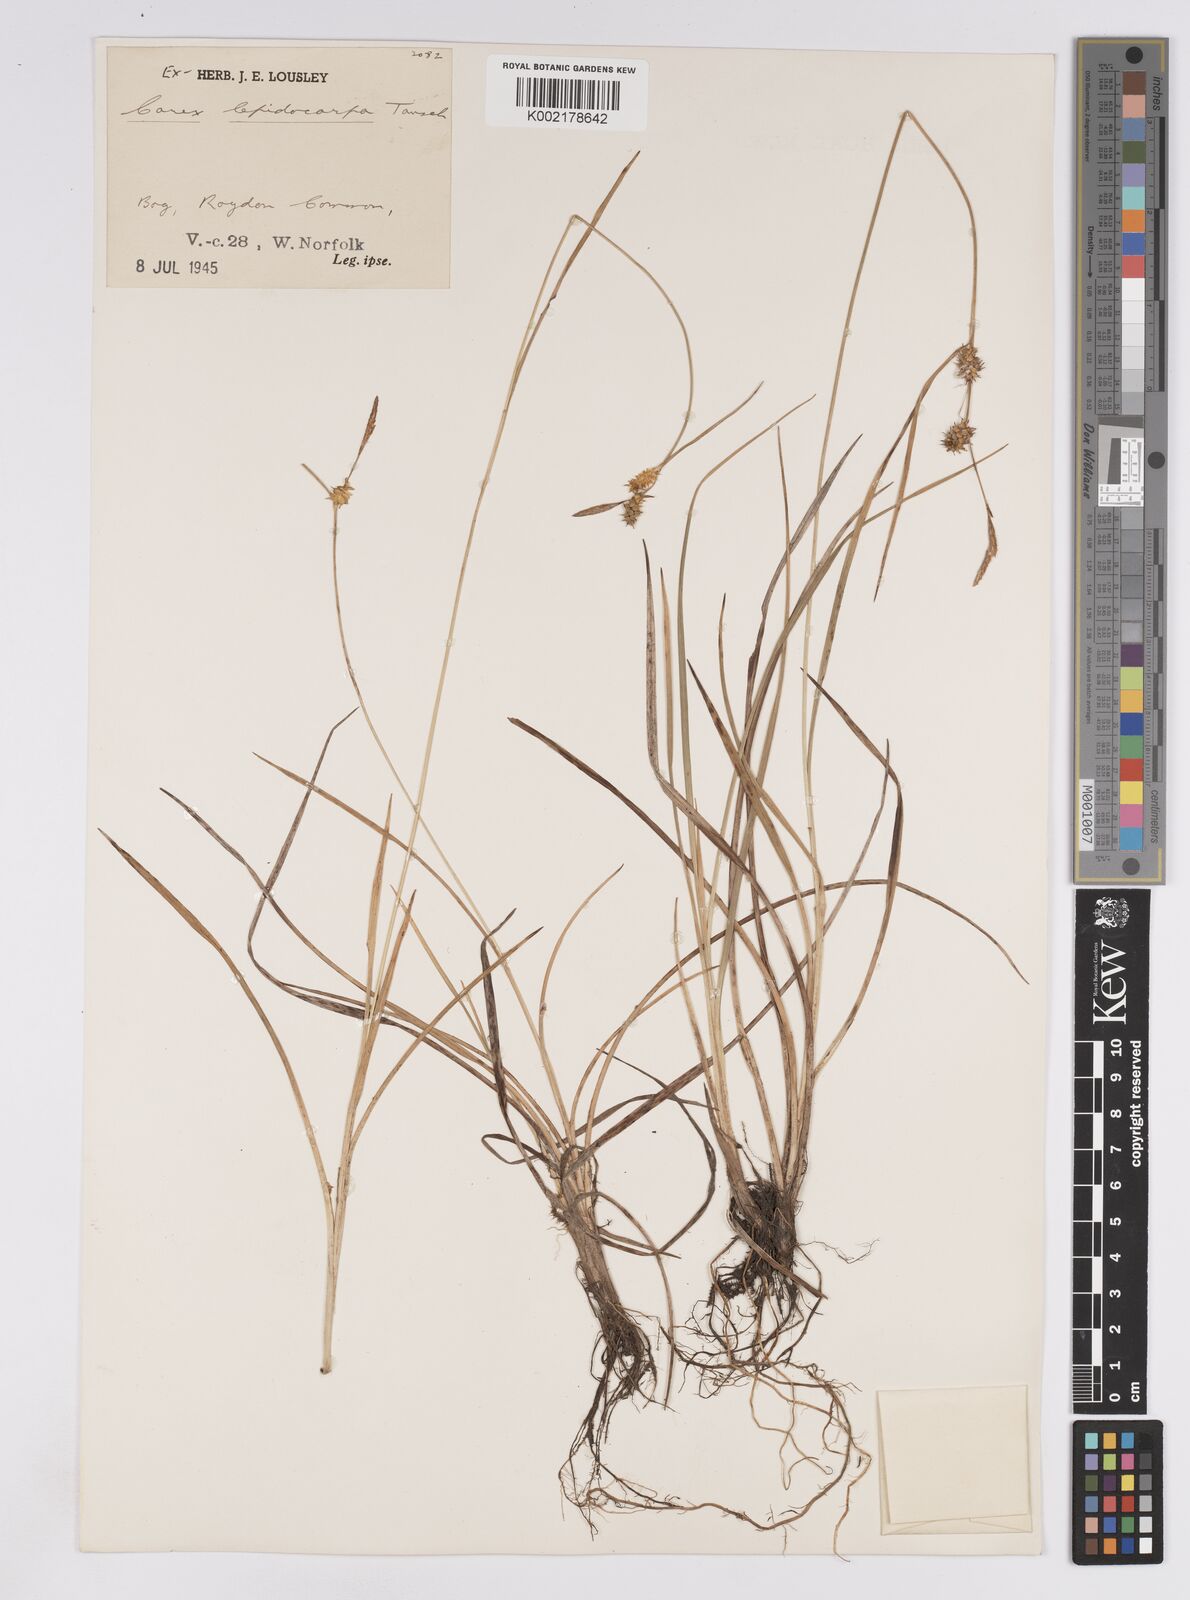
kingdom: Plantae
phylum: Tracheophyta
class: Liliopsida
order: Poales
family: Cyperaceae
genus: Carex
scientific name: Carex lepidocarpa
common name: Long-stalked yellow-sedge
